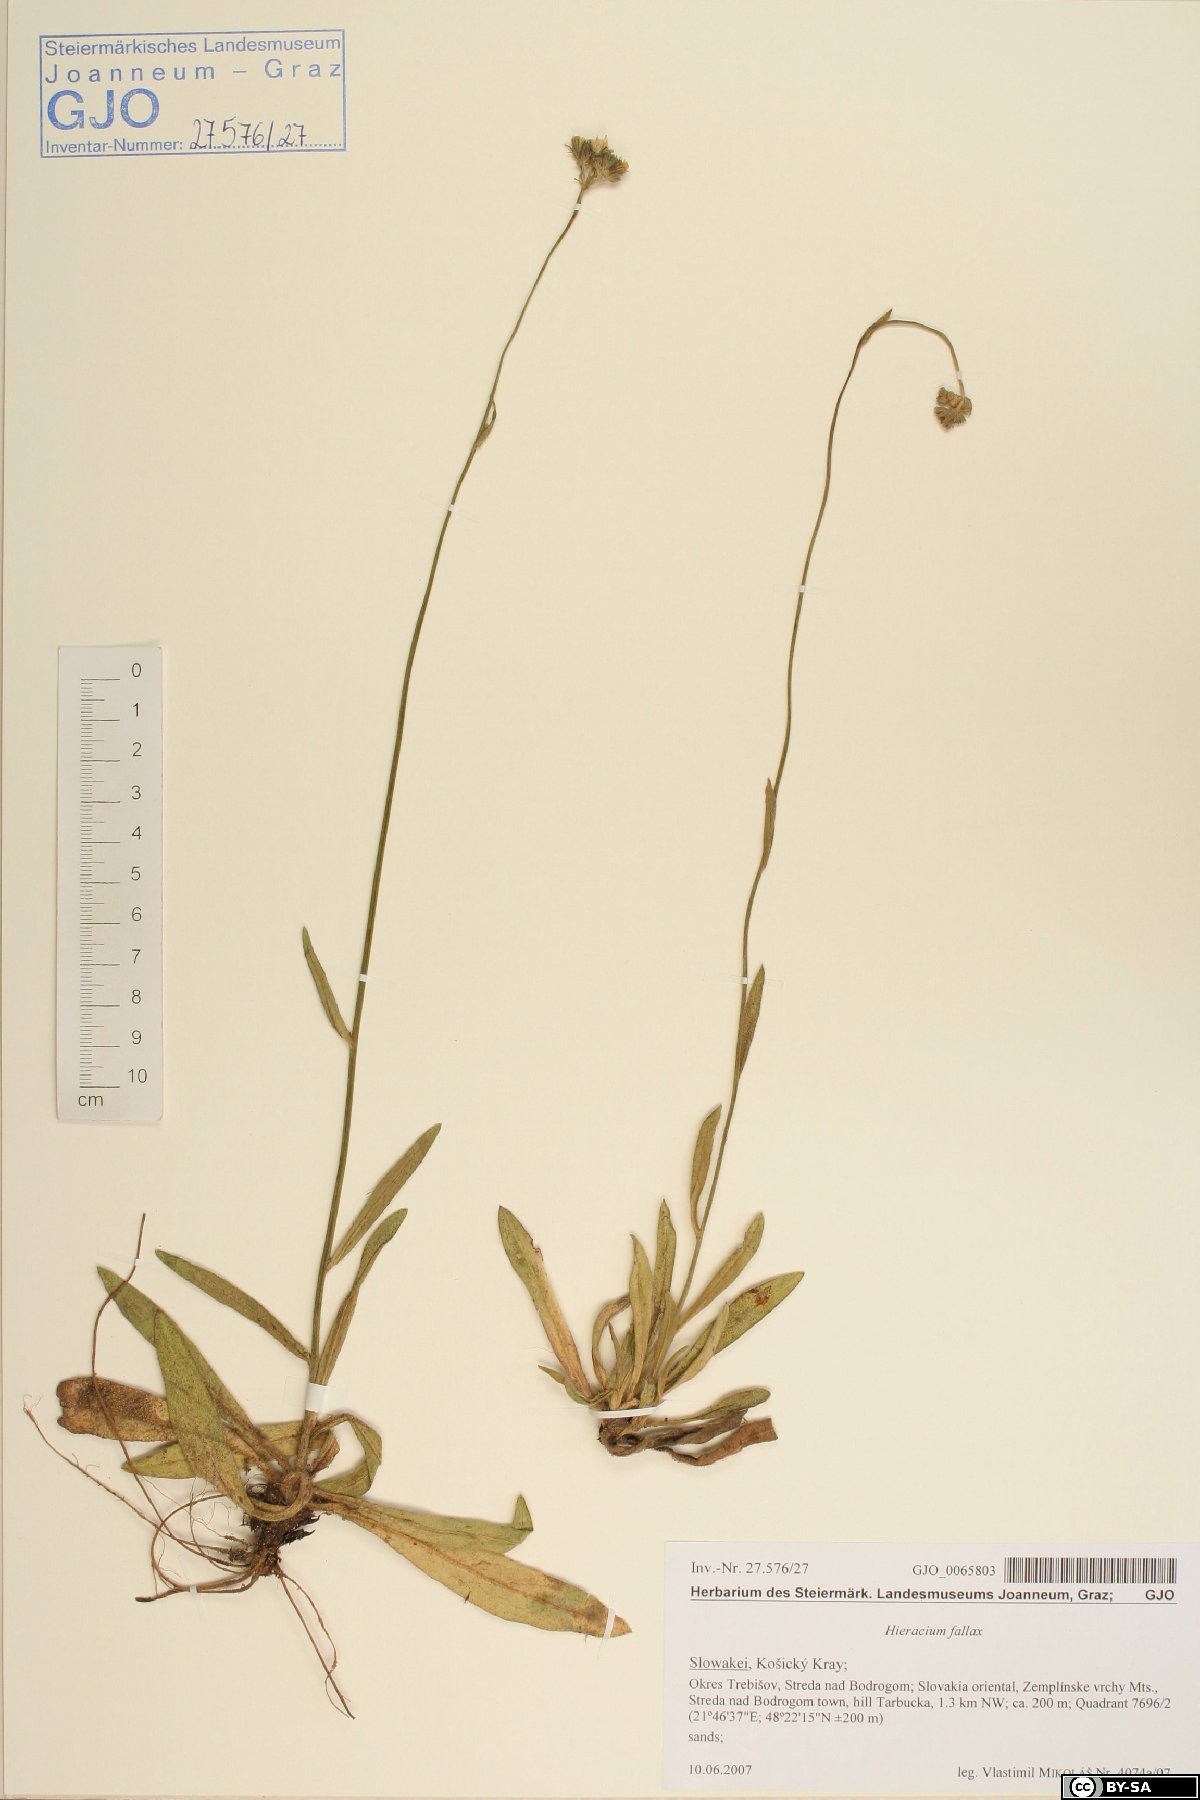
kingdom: Plantae
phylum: Tracheophyta
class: Magnoliopsida
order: Asterales
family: Asteraceae
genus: Pilosella
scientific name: Pilosella fallax
